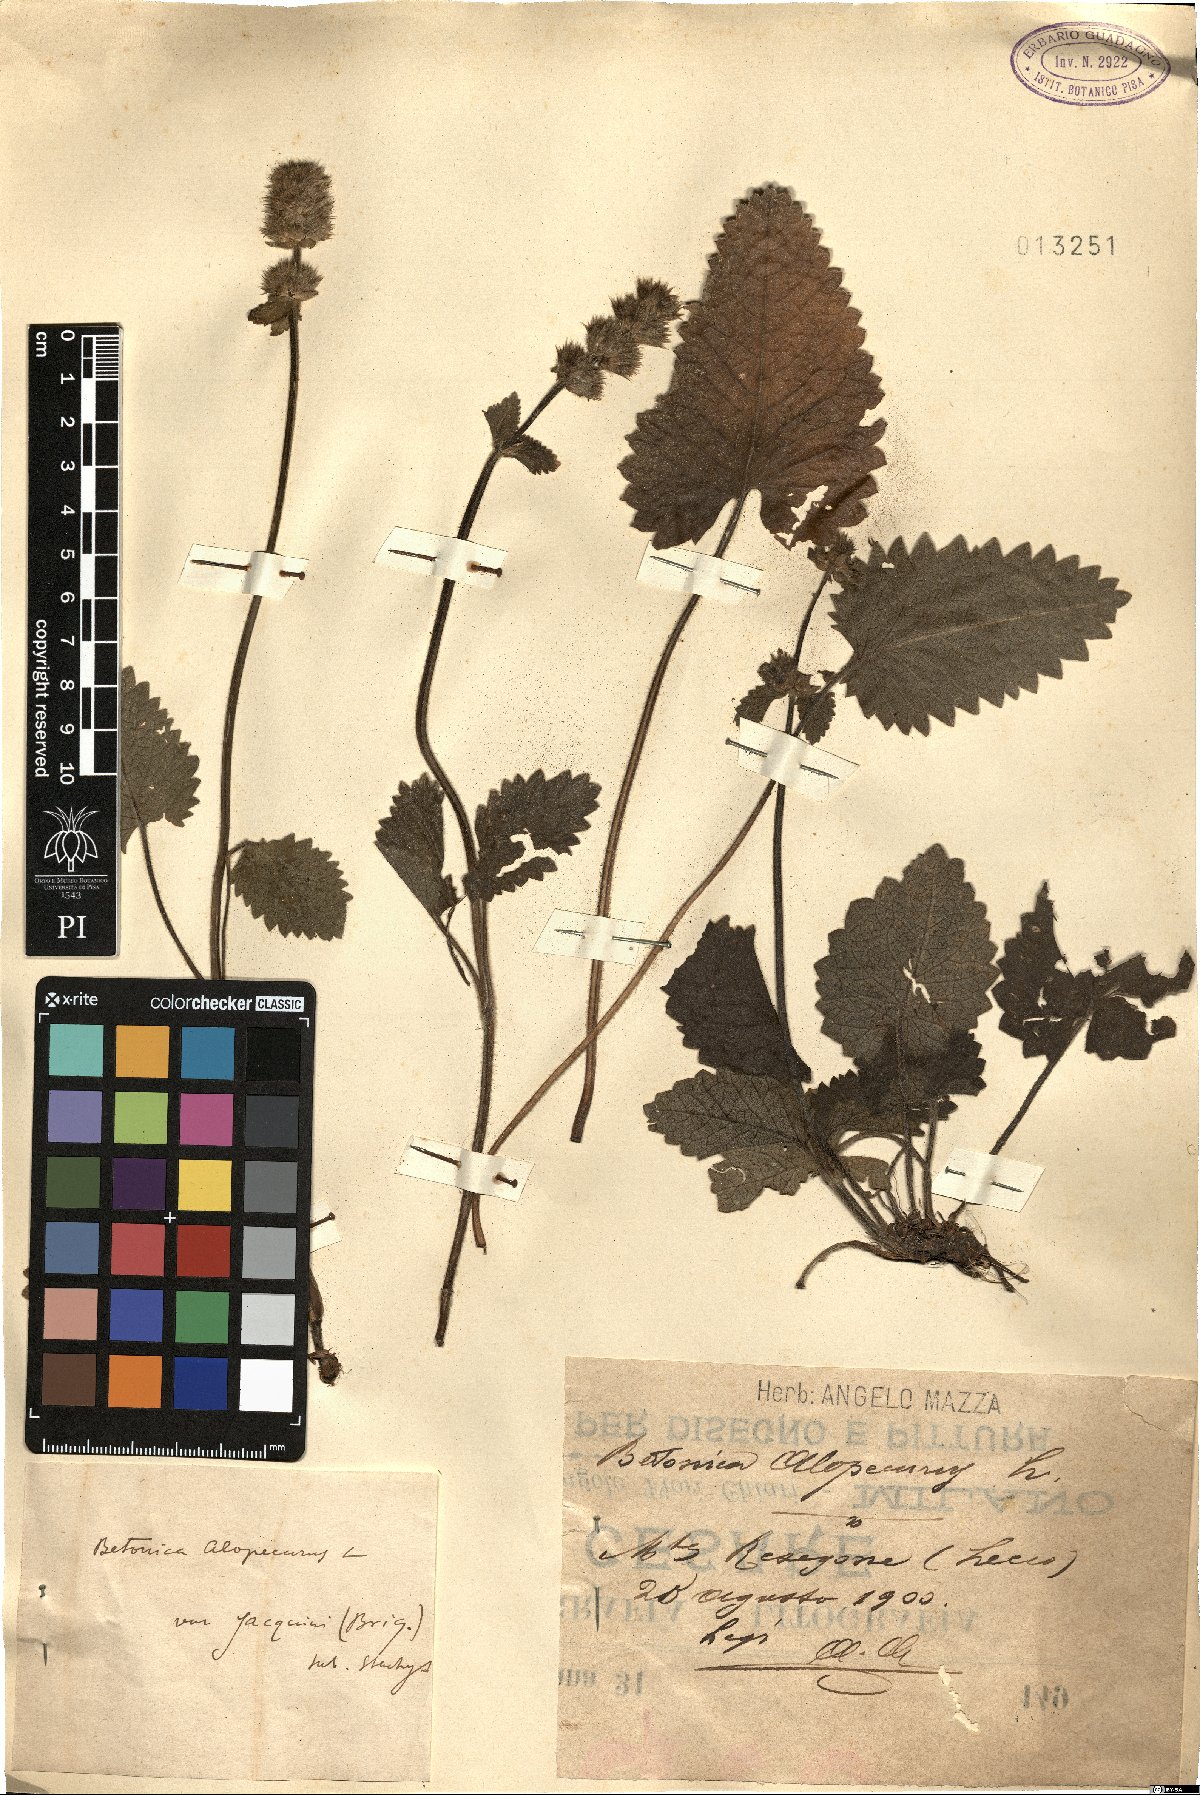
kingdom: Plantae
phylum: Tracheophyta
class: Magnoliopsida
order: Lamiales
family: Lamiaceae
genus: Betonica
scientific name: Betonica alopecuros
